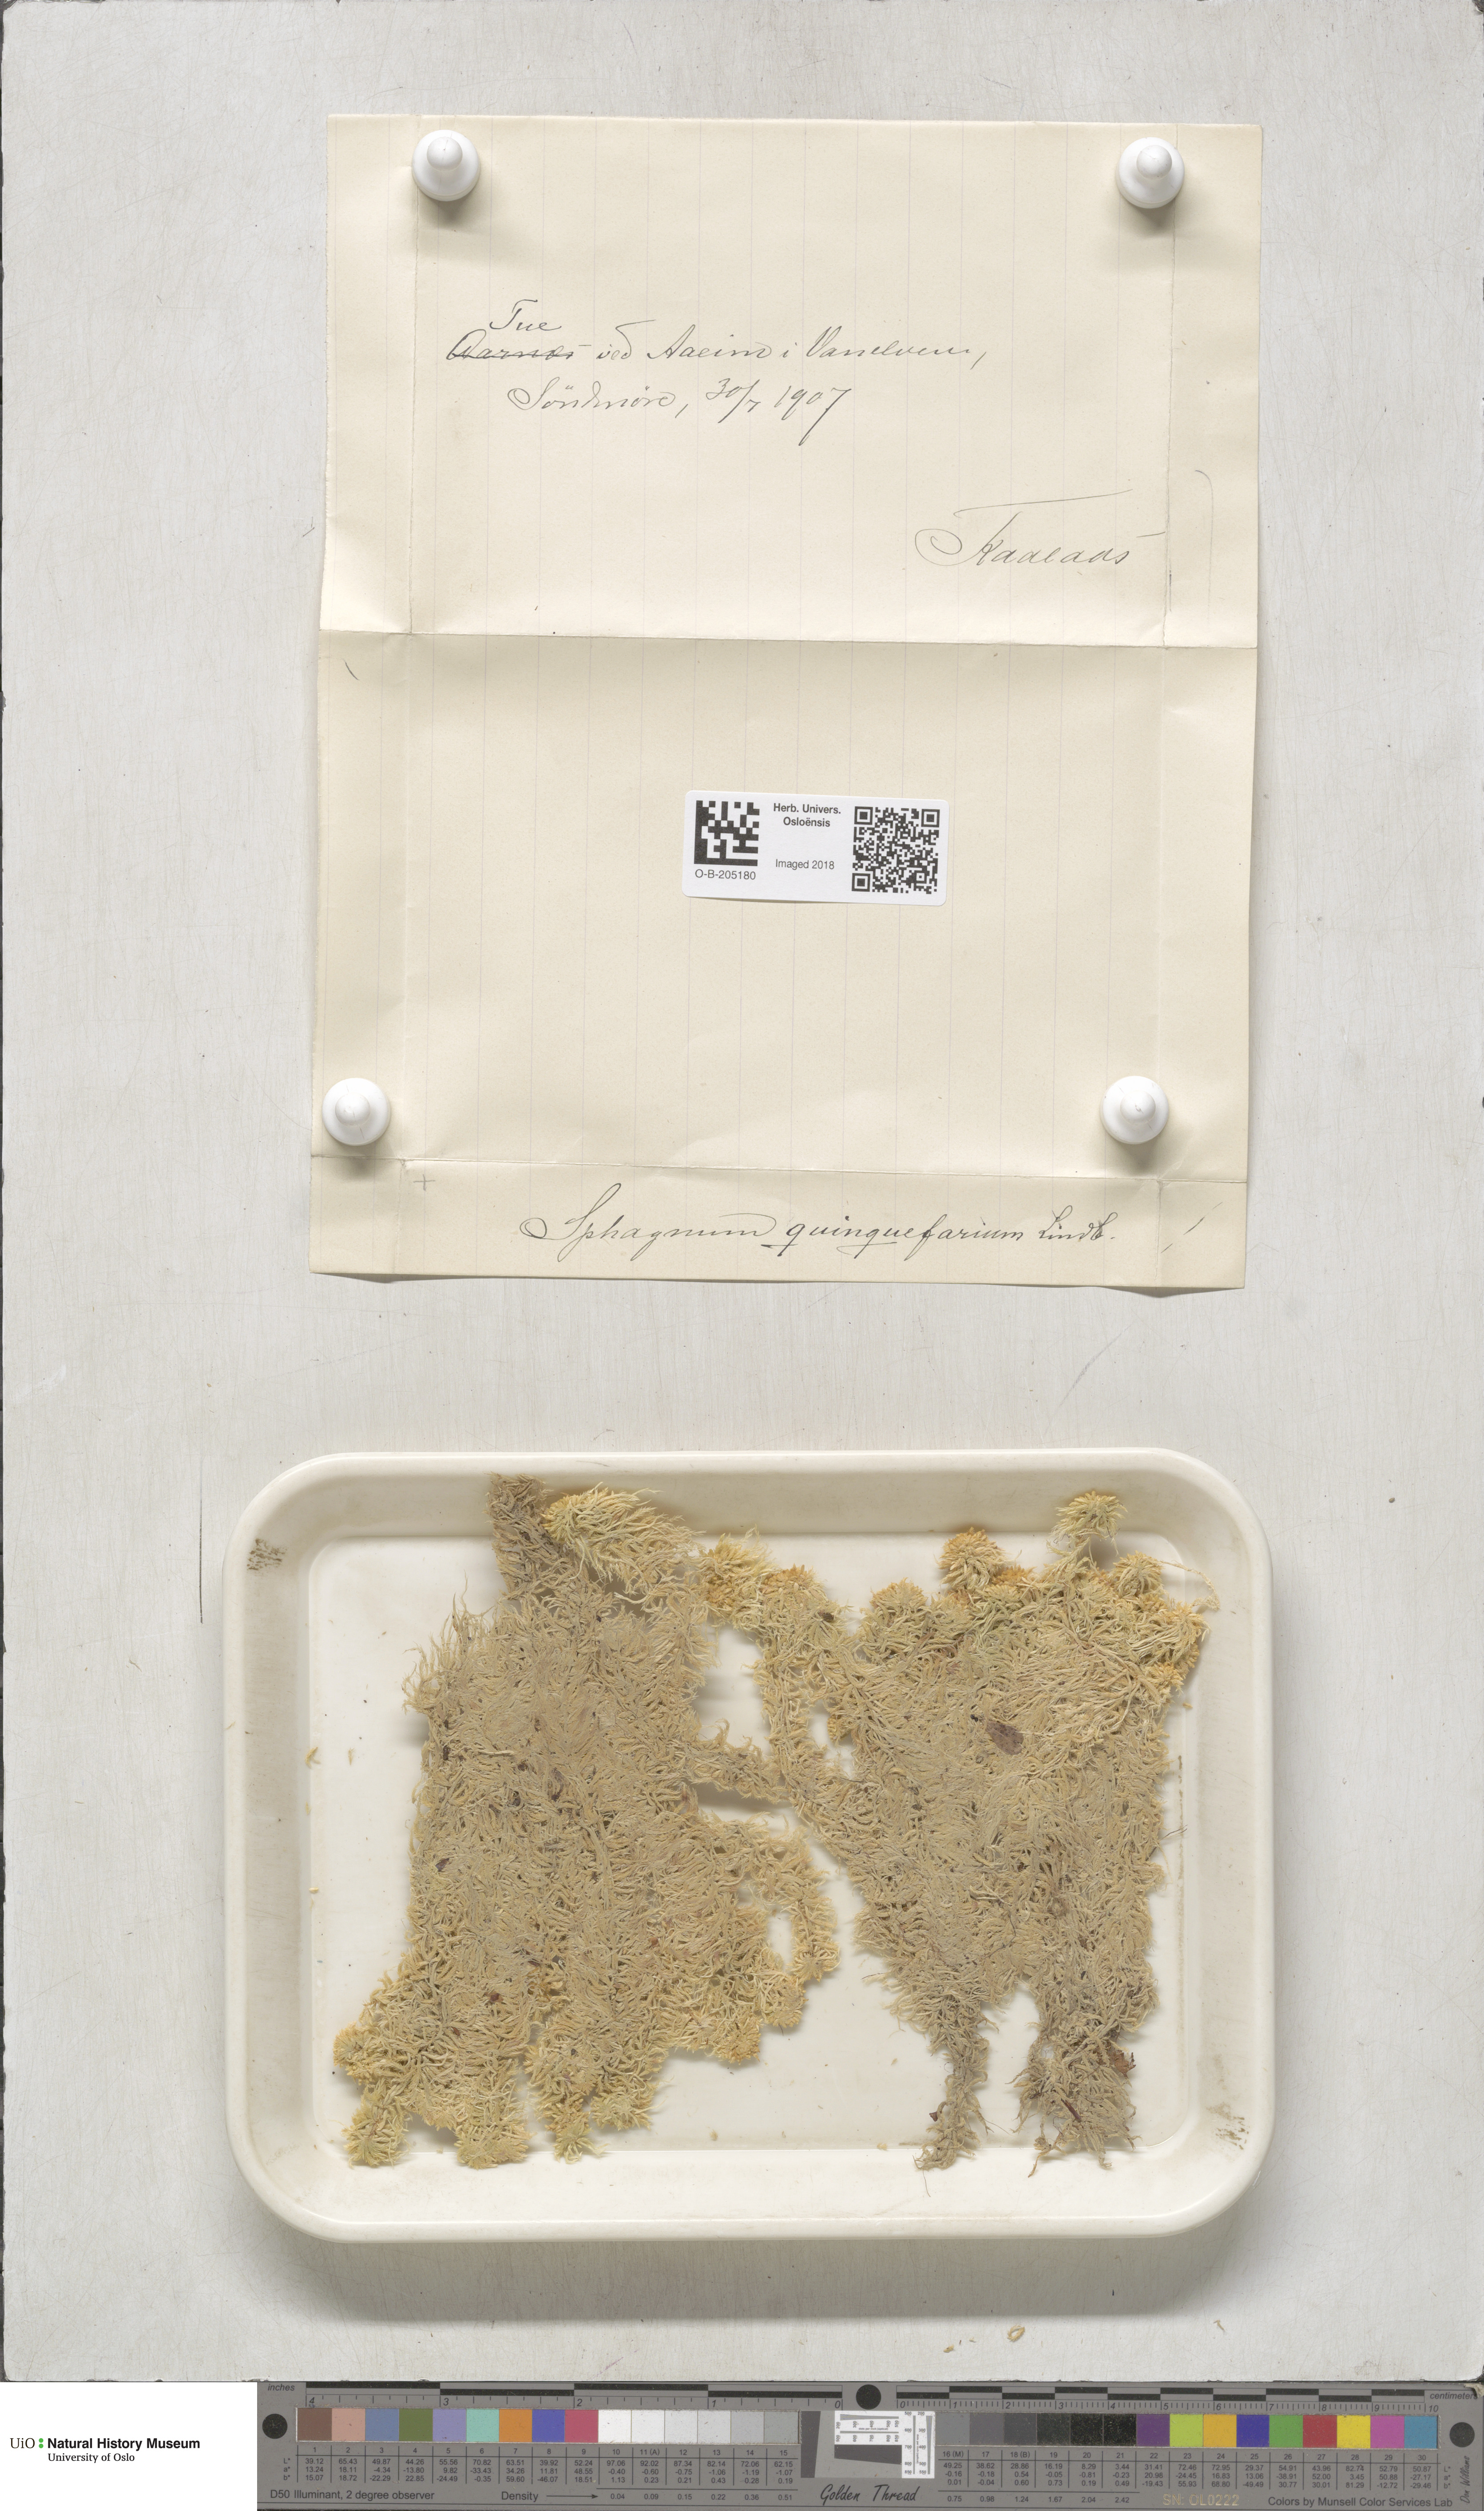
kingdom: Plantae
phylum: Bryophyta
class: Sphagnopsida
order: Sphagnales
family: Sphagnaceae
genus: Sphagnum
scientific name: Sphagnum quinquefarium
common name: Five-ranked peat moss
